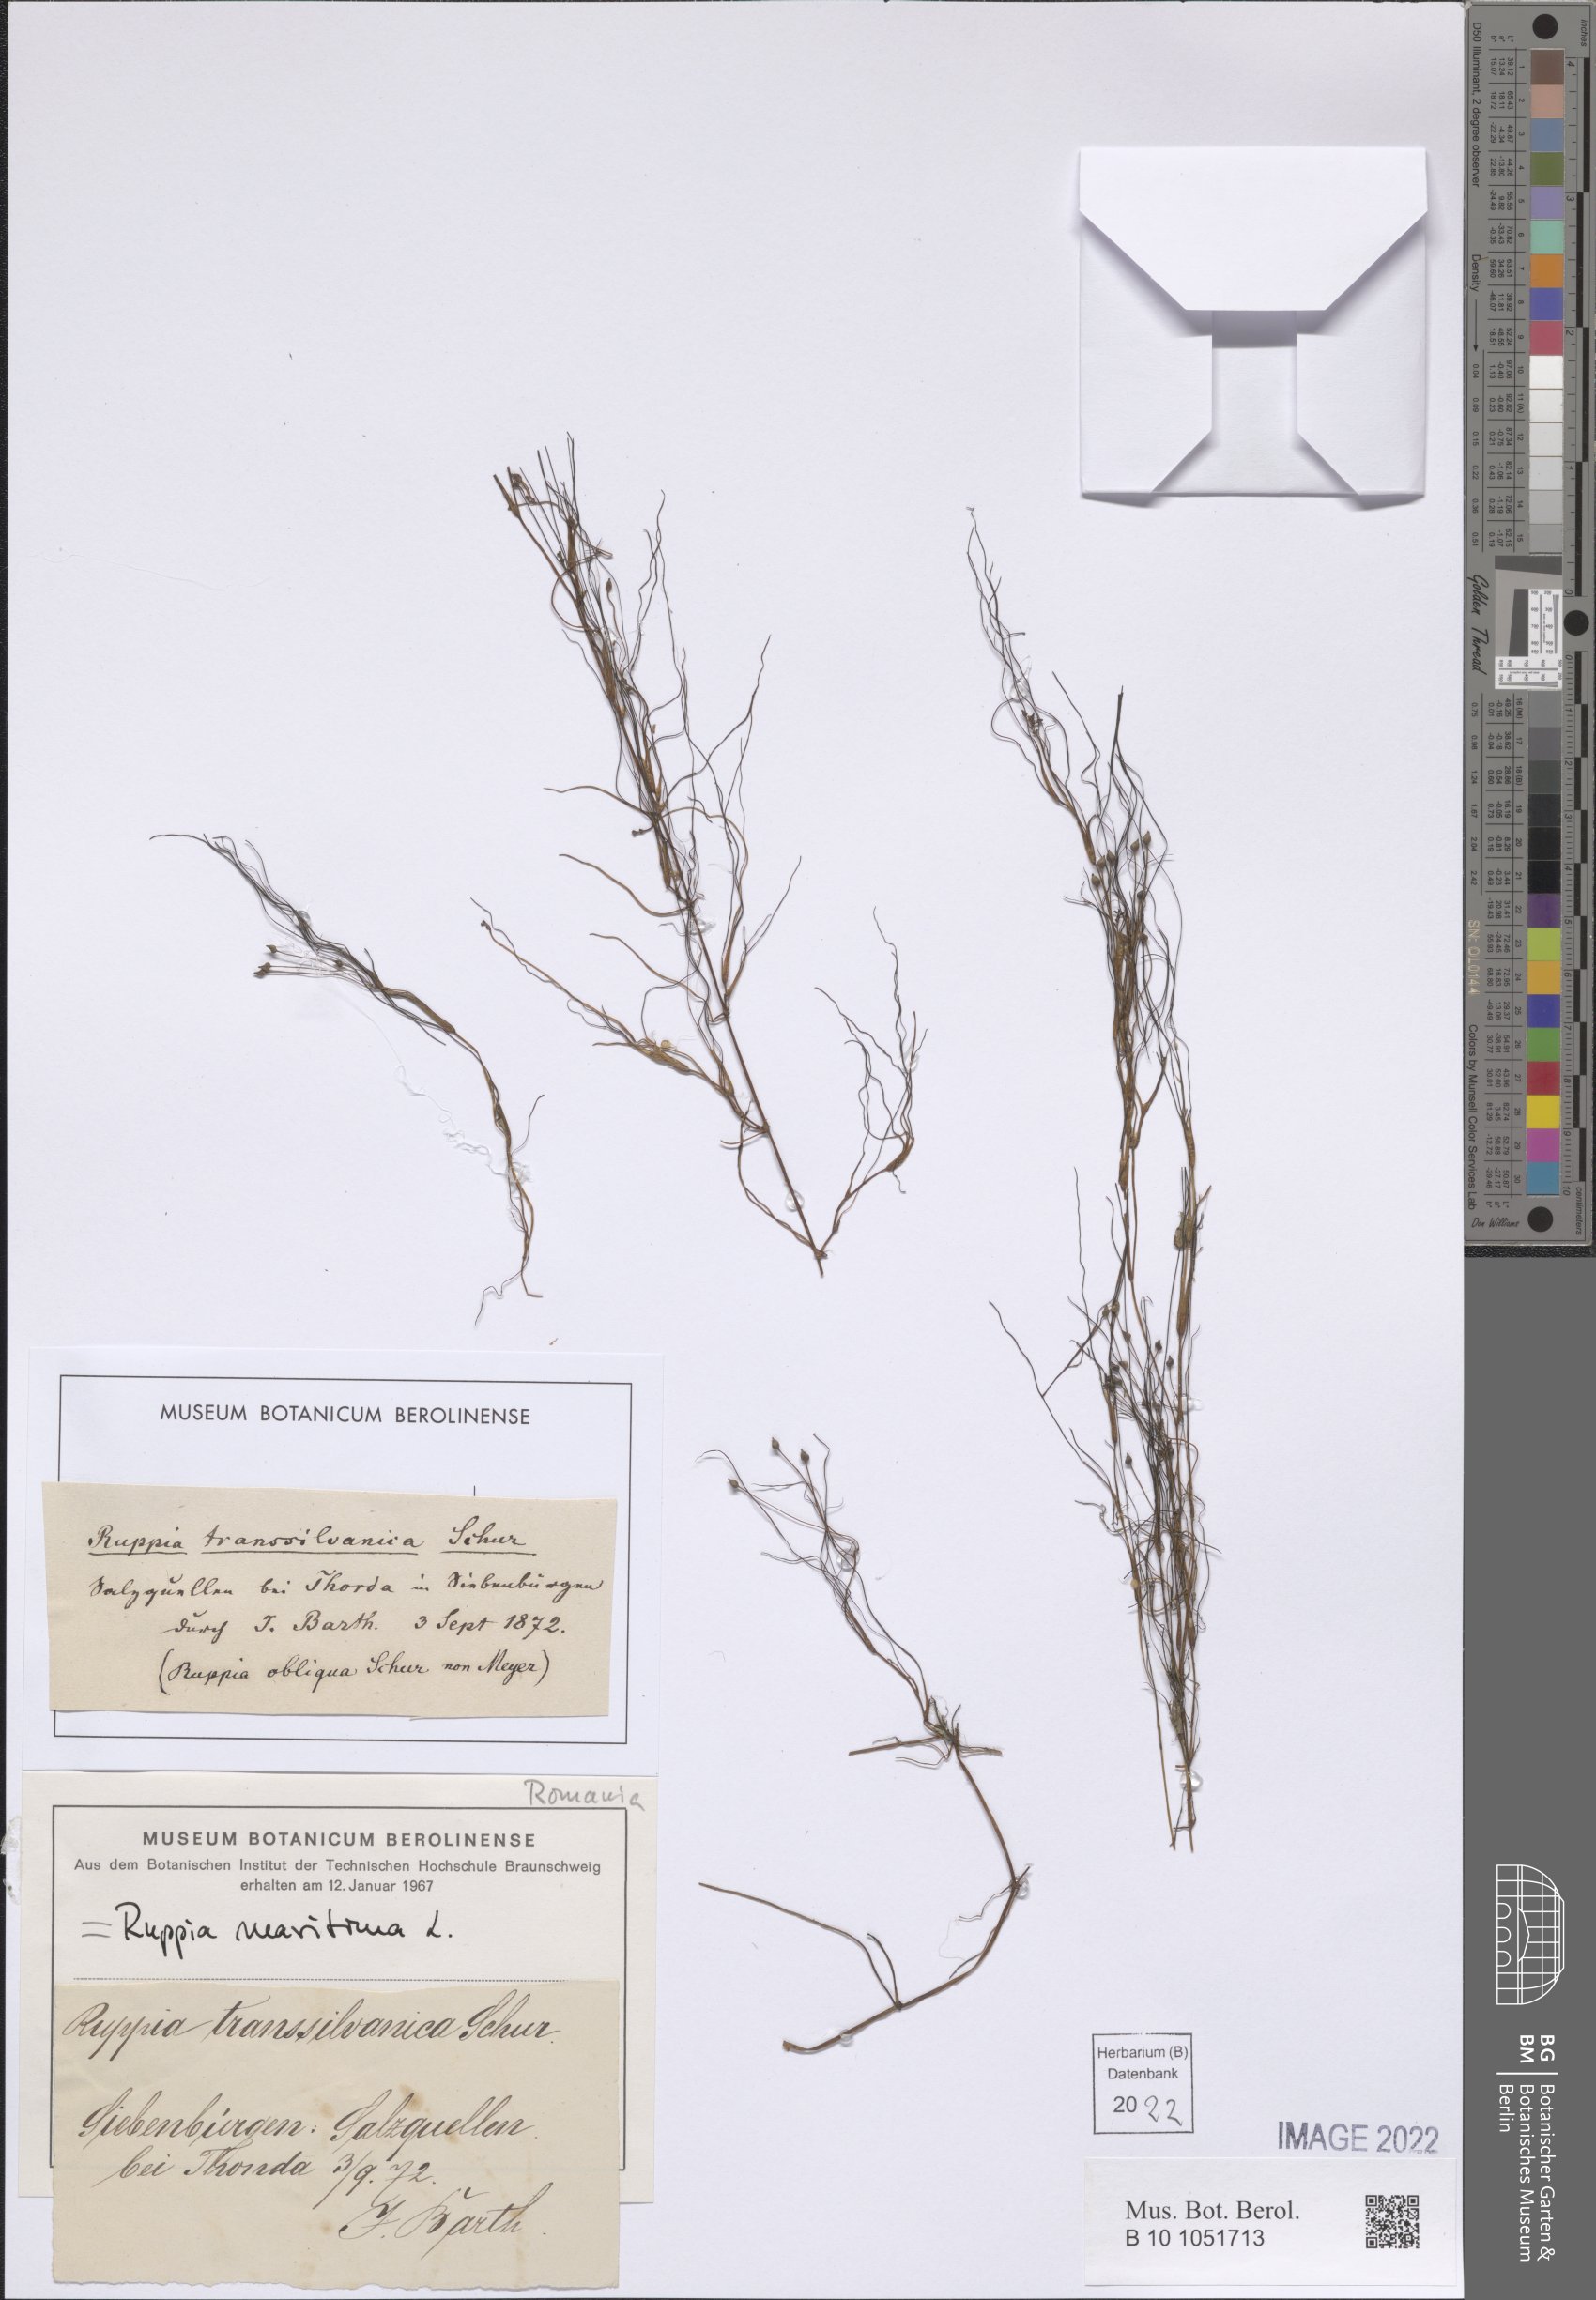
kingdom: Plantae
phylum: Tracheophyta
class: Liliopsida
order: Alismatales
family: Ruppiaceae
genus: Ruppia
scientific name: Ruppia maritima
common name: Beaked tasselweed
